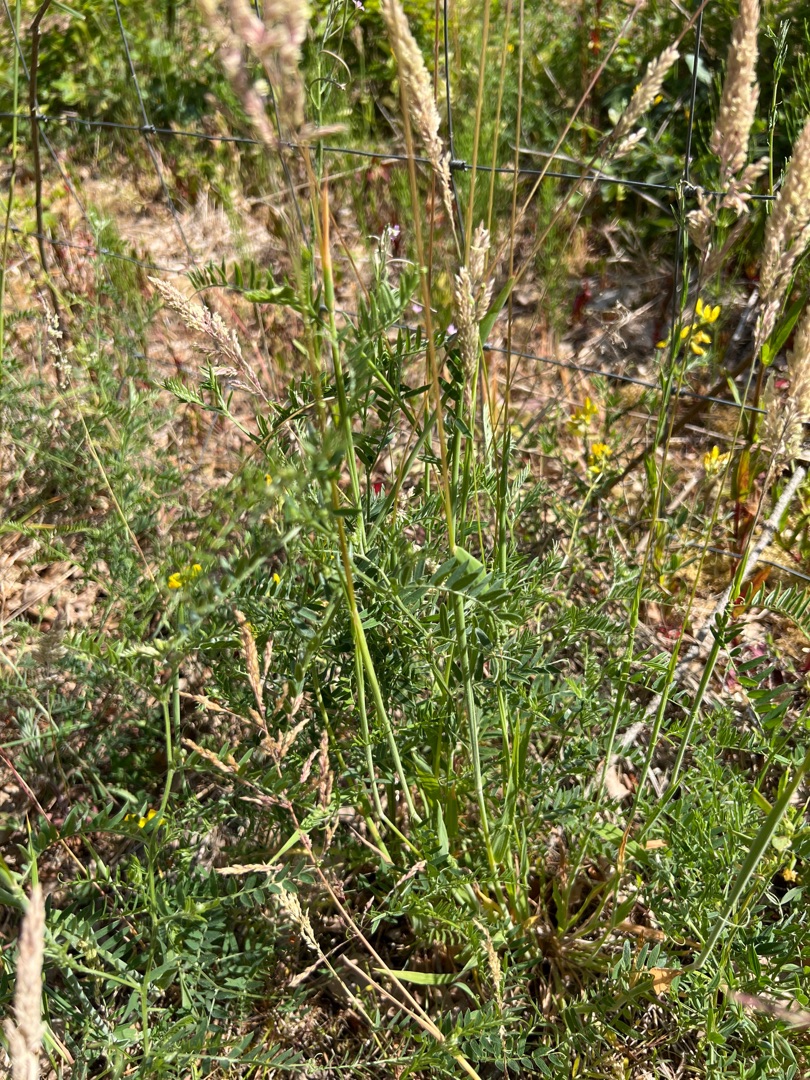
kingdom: Plantae
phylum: Tracheophyta
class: Magnoliopsida
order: Fabales
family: Fabaceae
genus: Lathyrus
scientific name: Lathyrus pratensis
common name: Gul fladbælg
